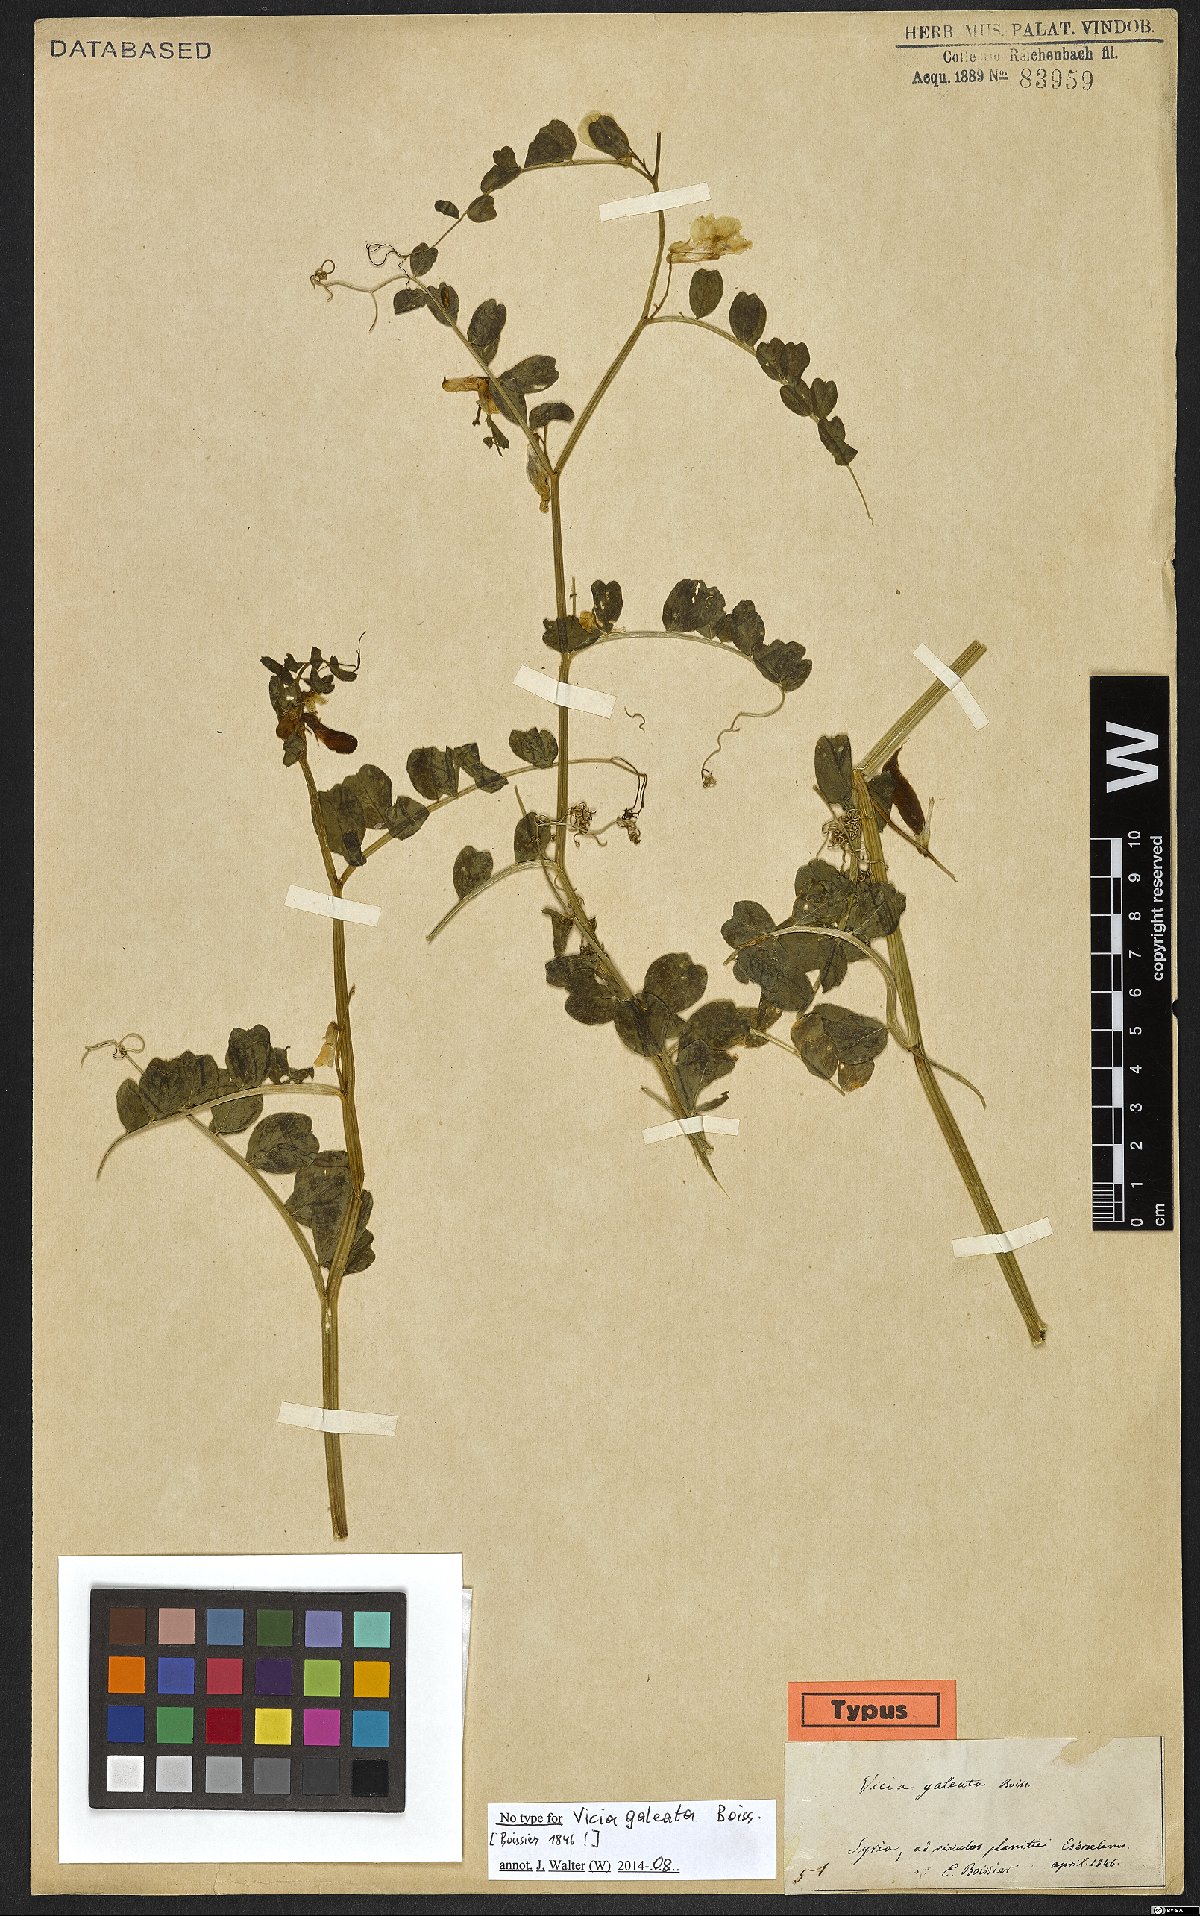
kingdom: Plantae
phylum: Tracheophyta
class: Magnoliopsida
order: Fabales
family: Fabaceae
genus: Vicia
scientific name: Vicia galeata
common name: Helmeted vetch
